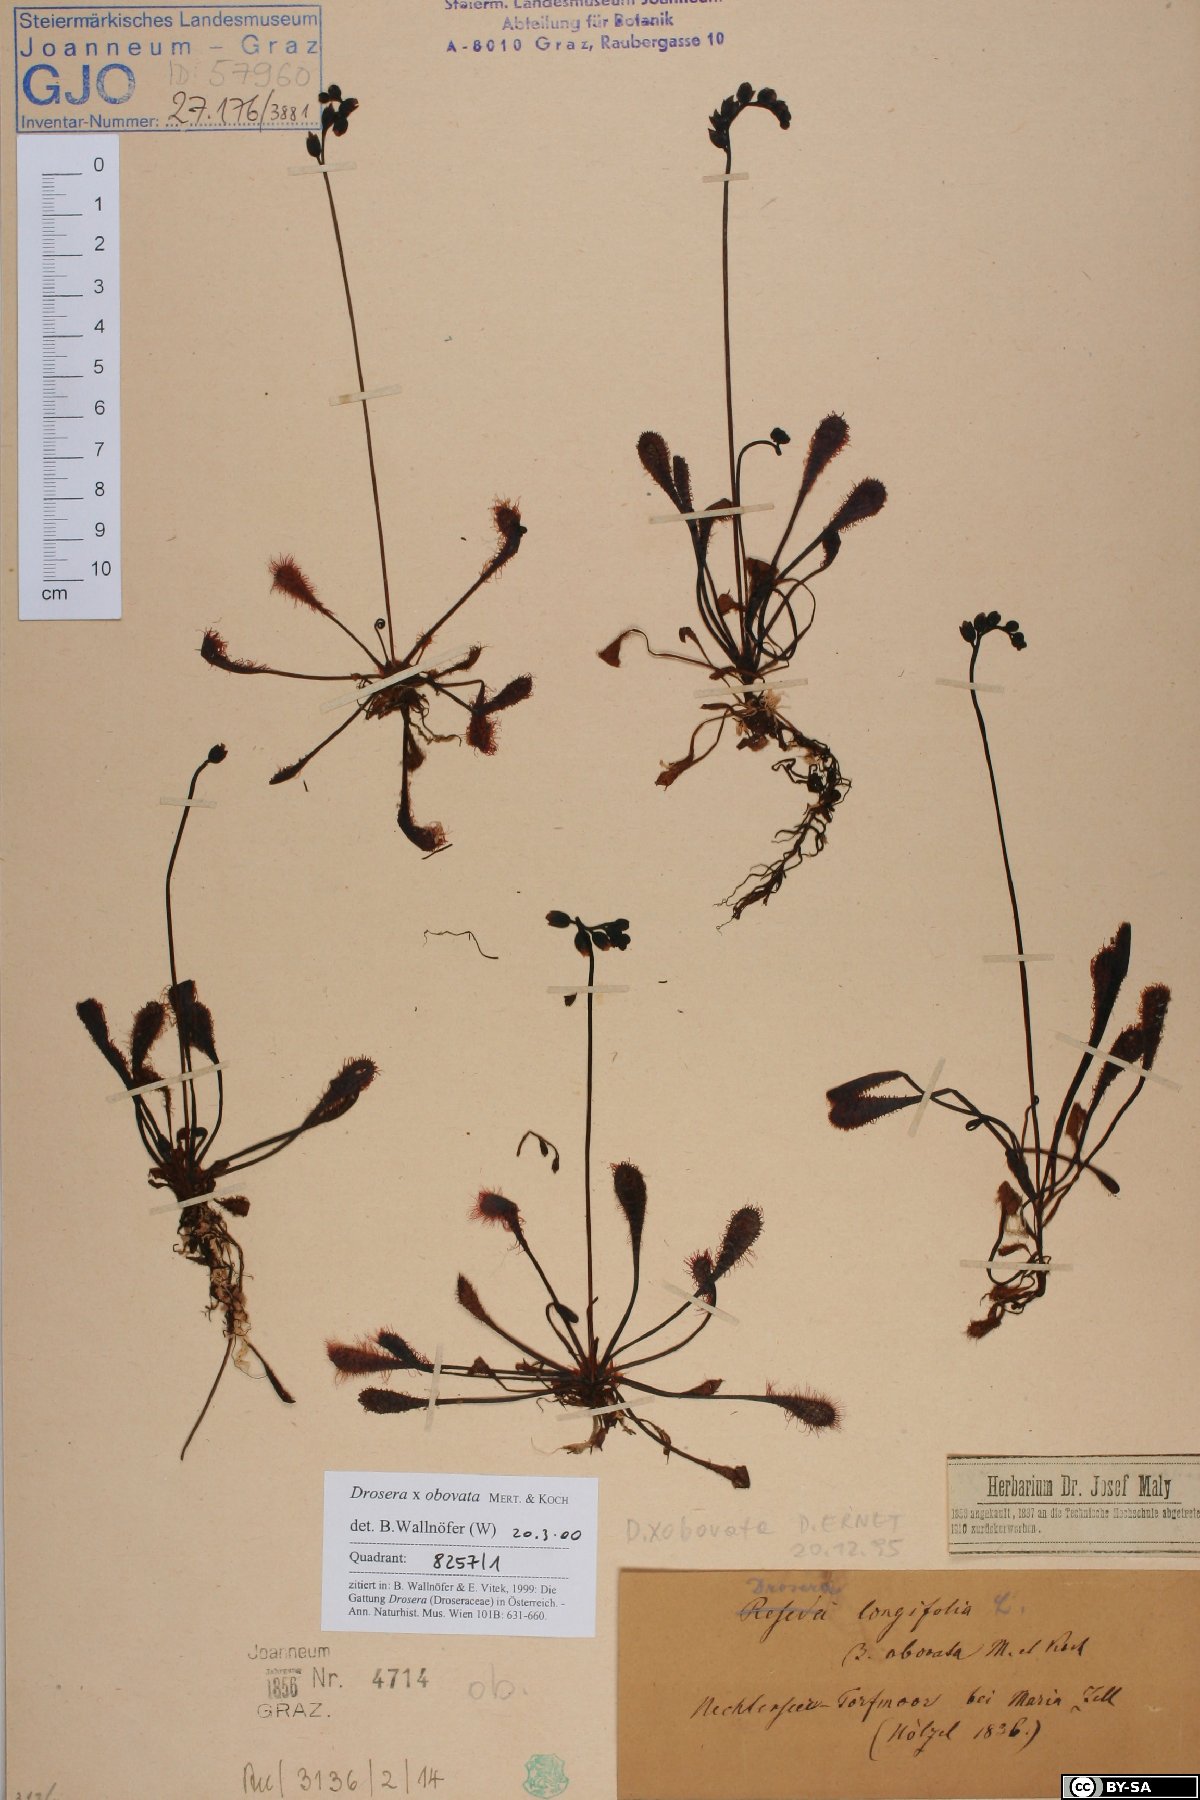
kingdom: Plantae
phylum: Tracheophyta
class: Magnoliopsida
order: Caryophyllales
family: Droseraceae
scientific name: Droseraceae
